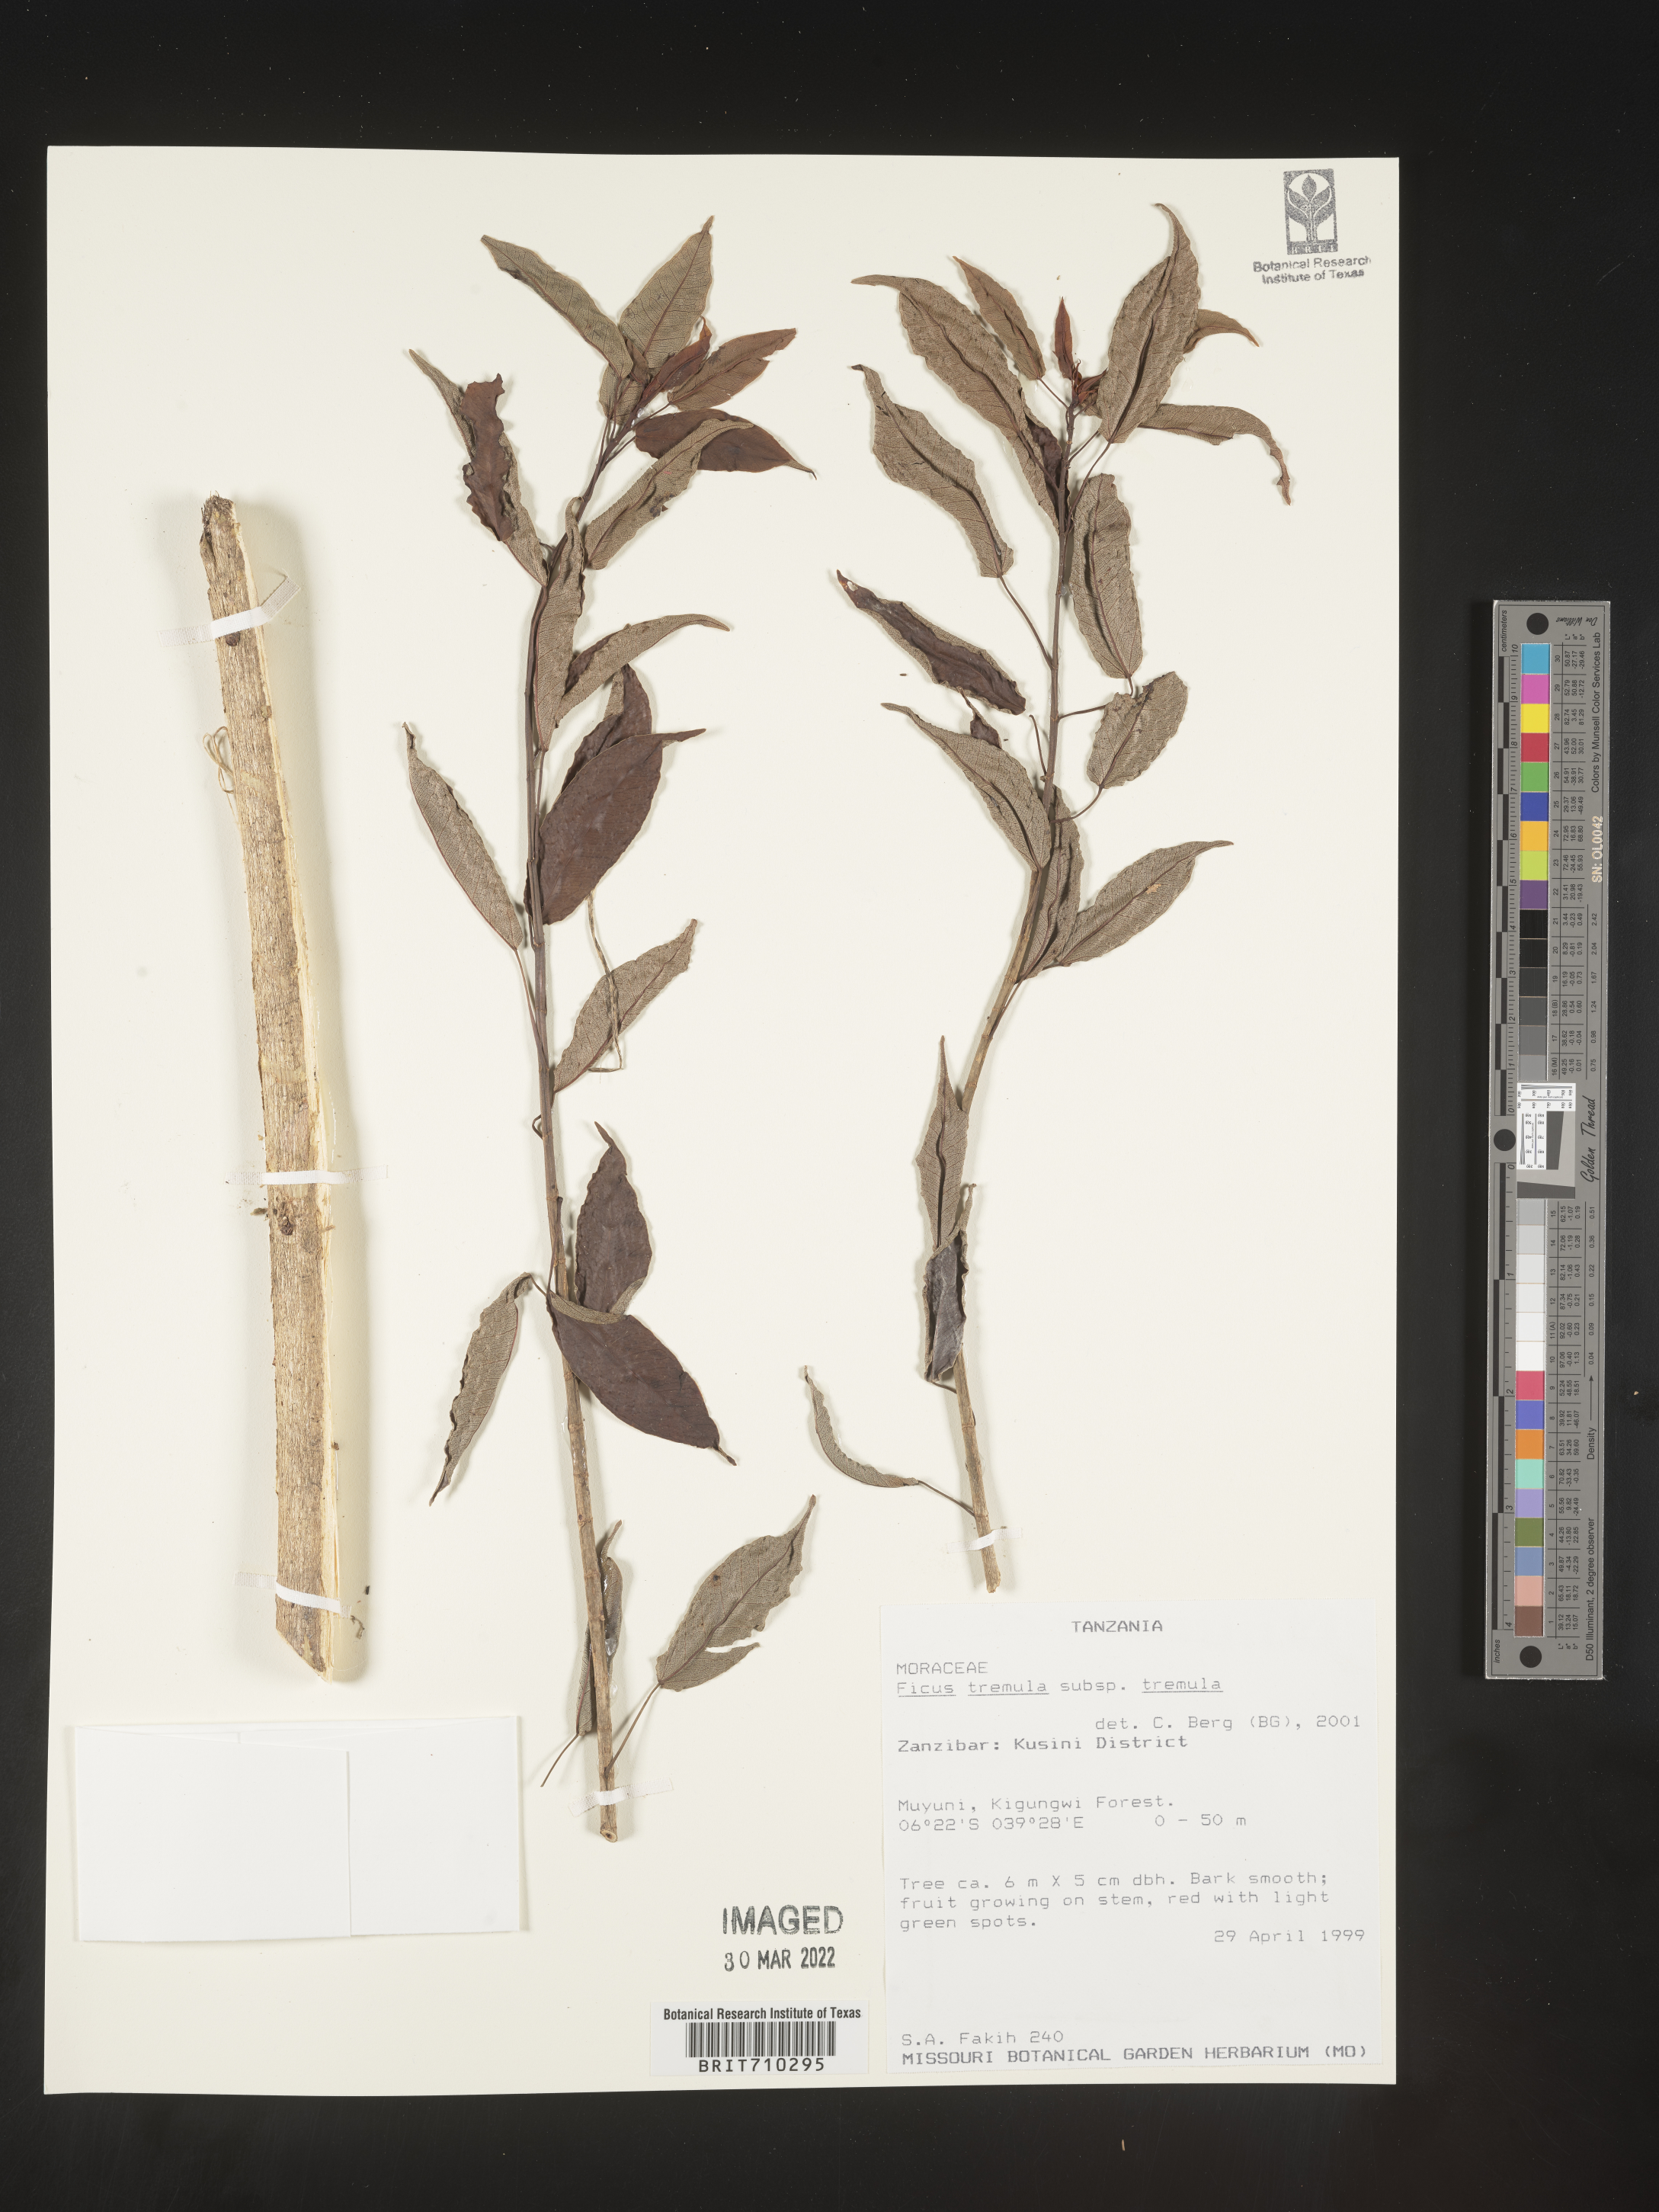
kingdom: Plantae
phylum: Tracheophyta
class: Magnoliopsida
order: Rosales
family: Moraceae
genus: Ficus
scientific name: Ficus
